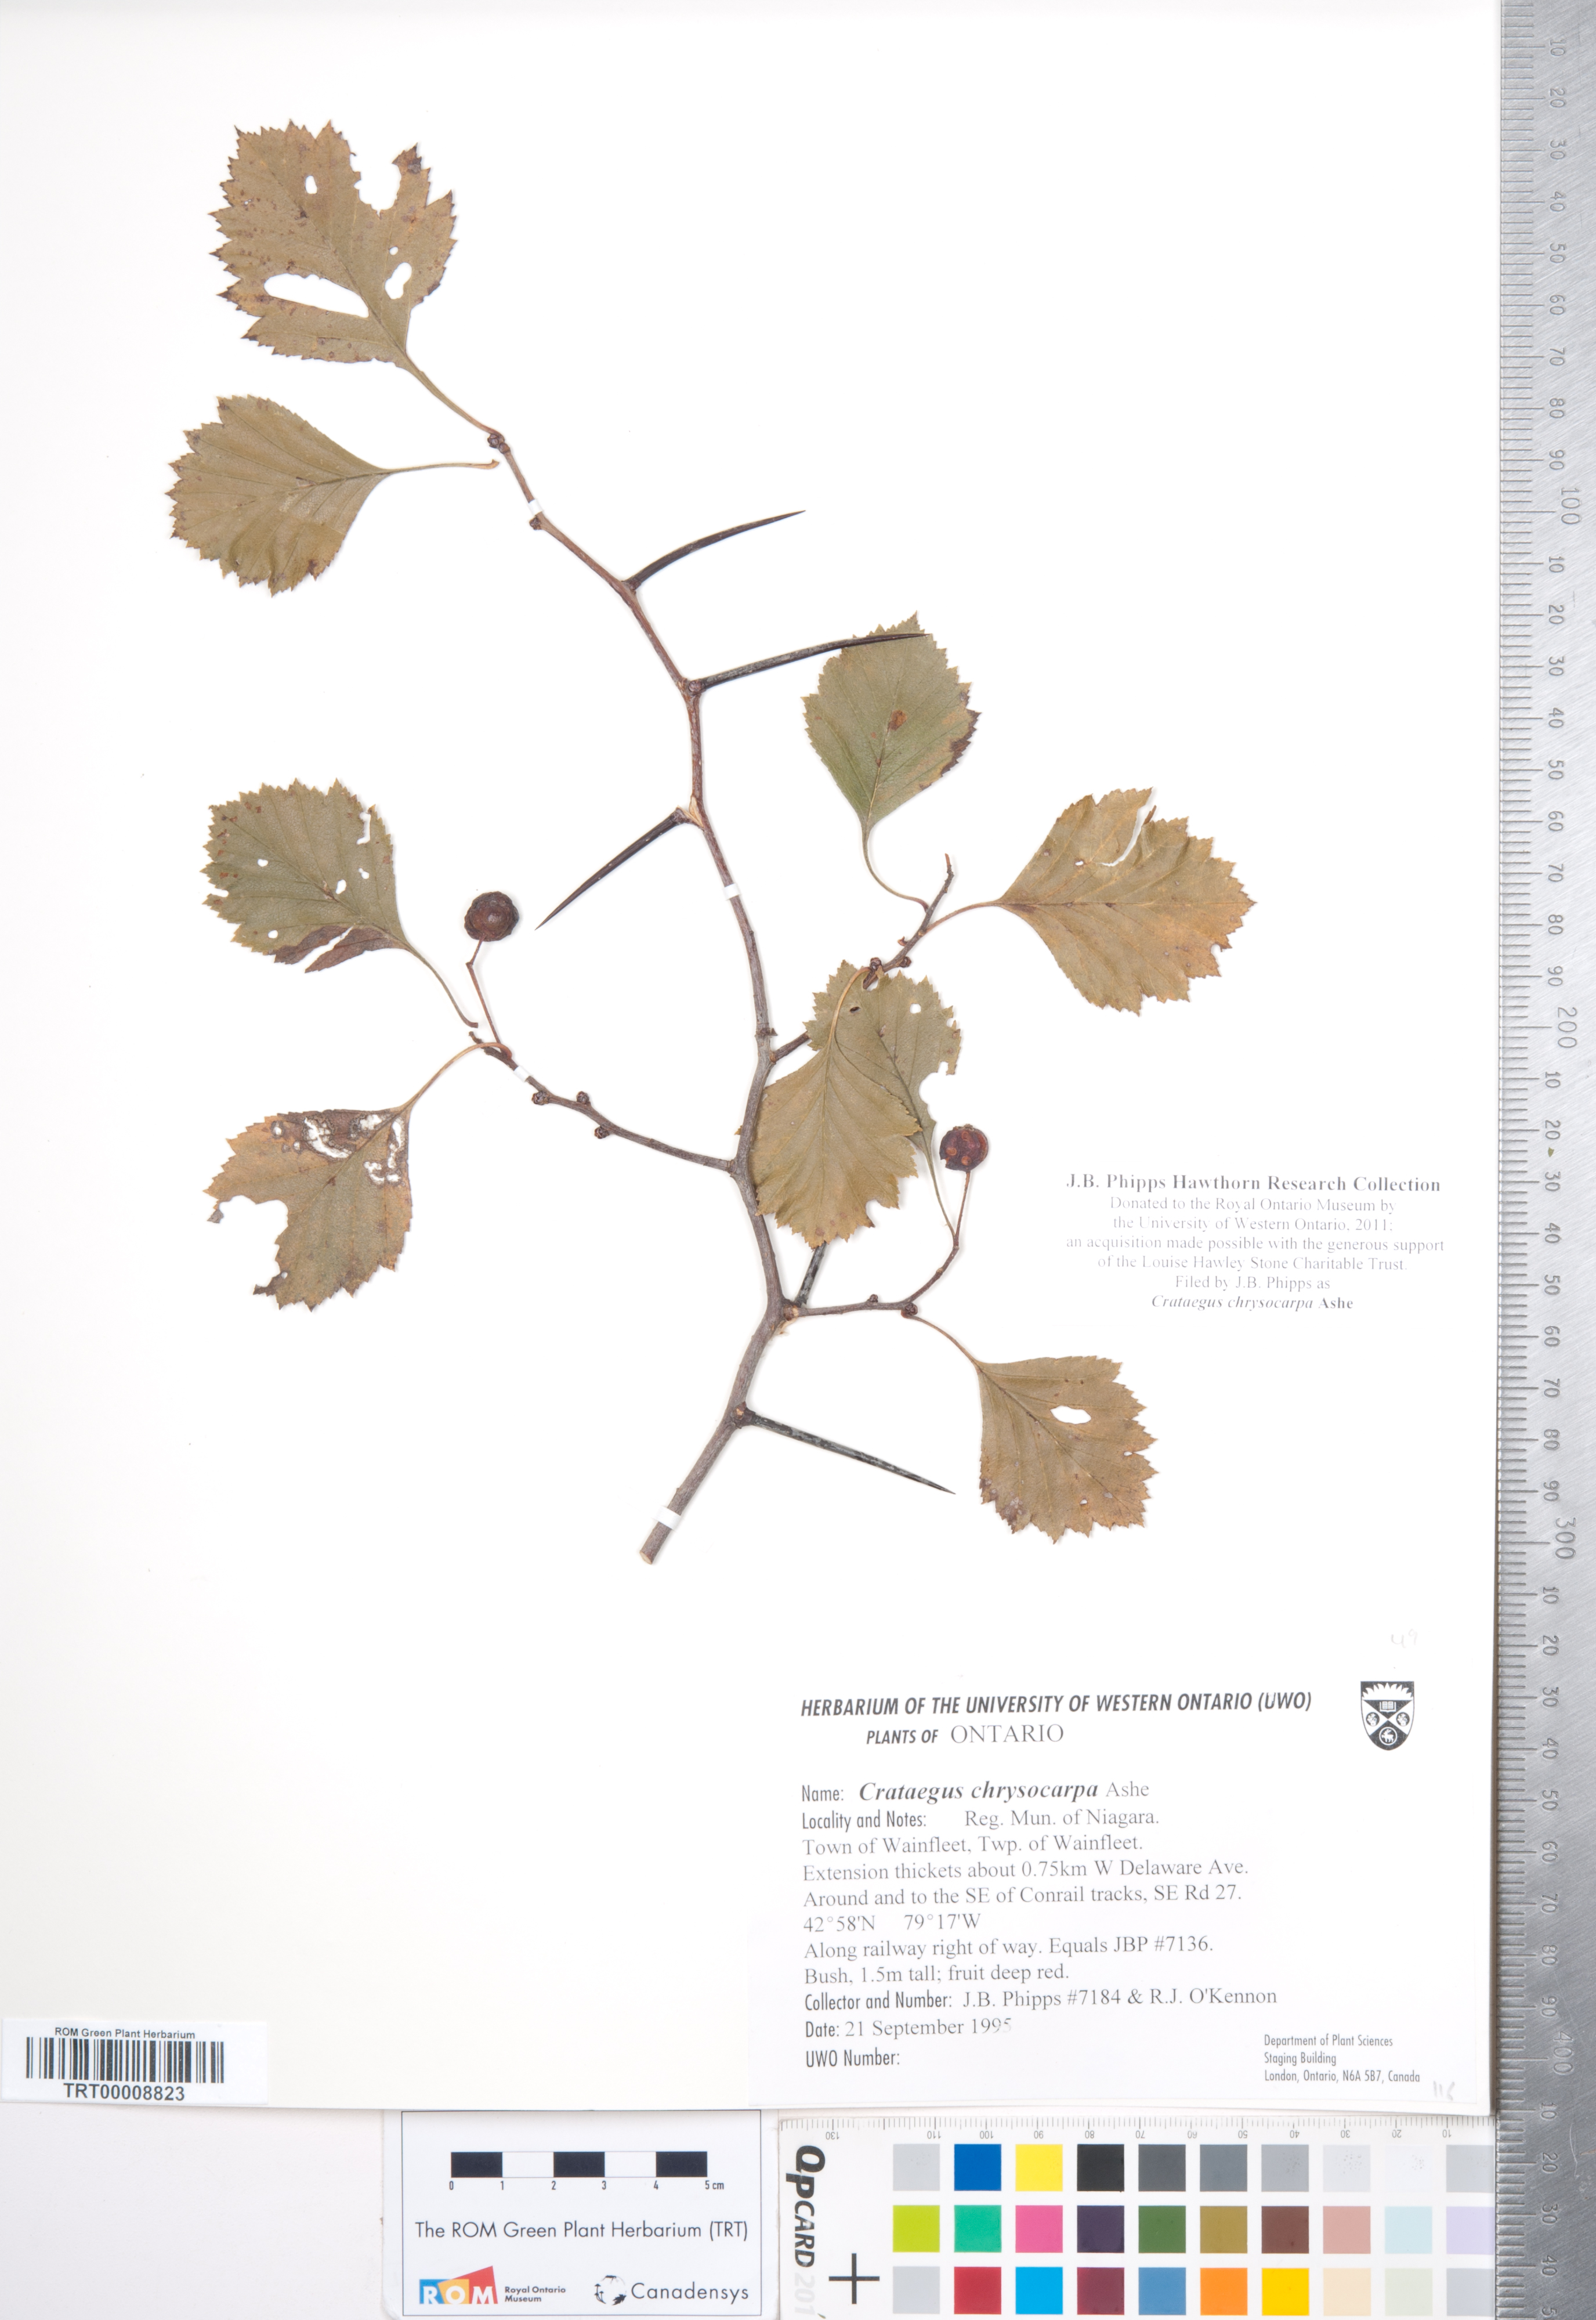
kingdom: Plantae
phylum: Tracheophyta
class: Magnoliopsida
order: Rosales
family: Rosaceae
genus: Crataegus
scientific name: Crataegus chrysocarpa
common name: Fire-berry hawthorn
